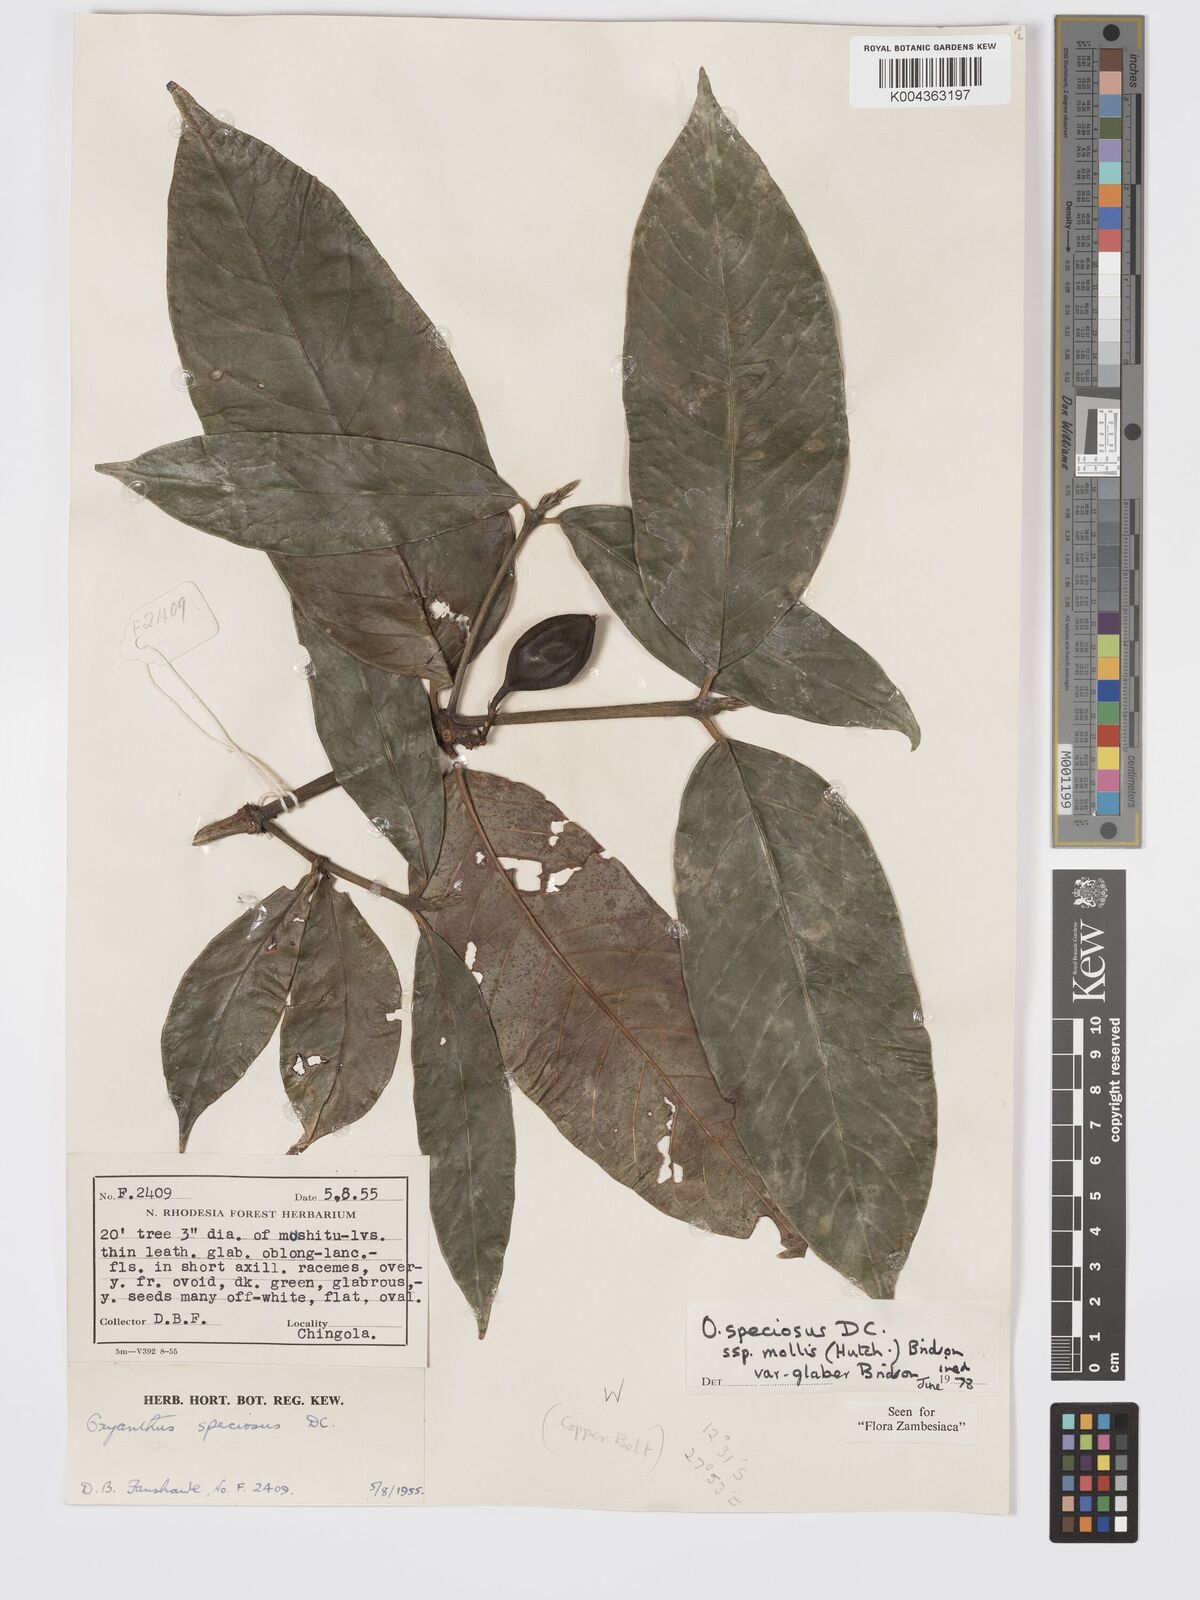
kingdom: Plantae
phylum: Tracheophyta
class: Magnoliopsida
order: Gentianales
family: Rubiaceae
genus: Oxyanthus
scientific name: Oxyanthus speciosus
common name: Whipstick loquat
